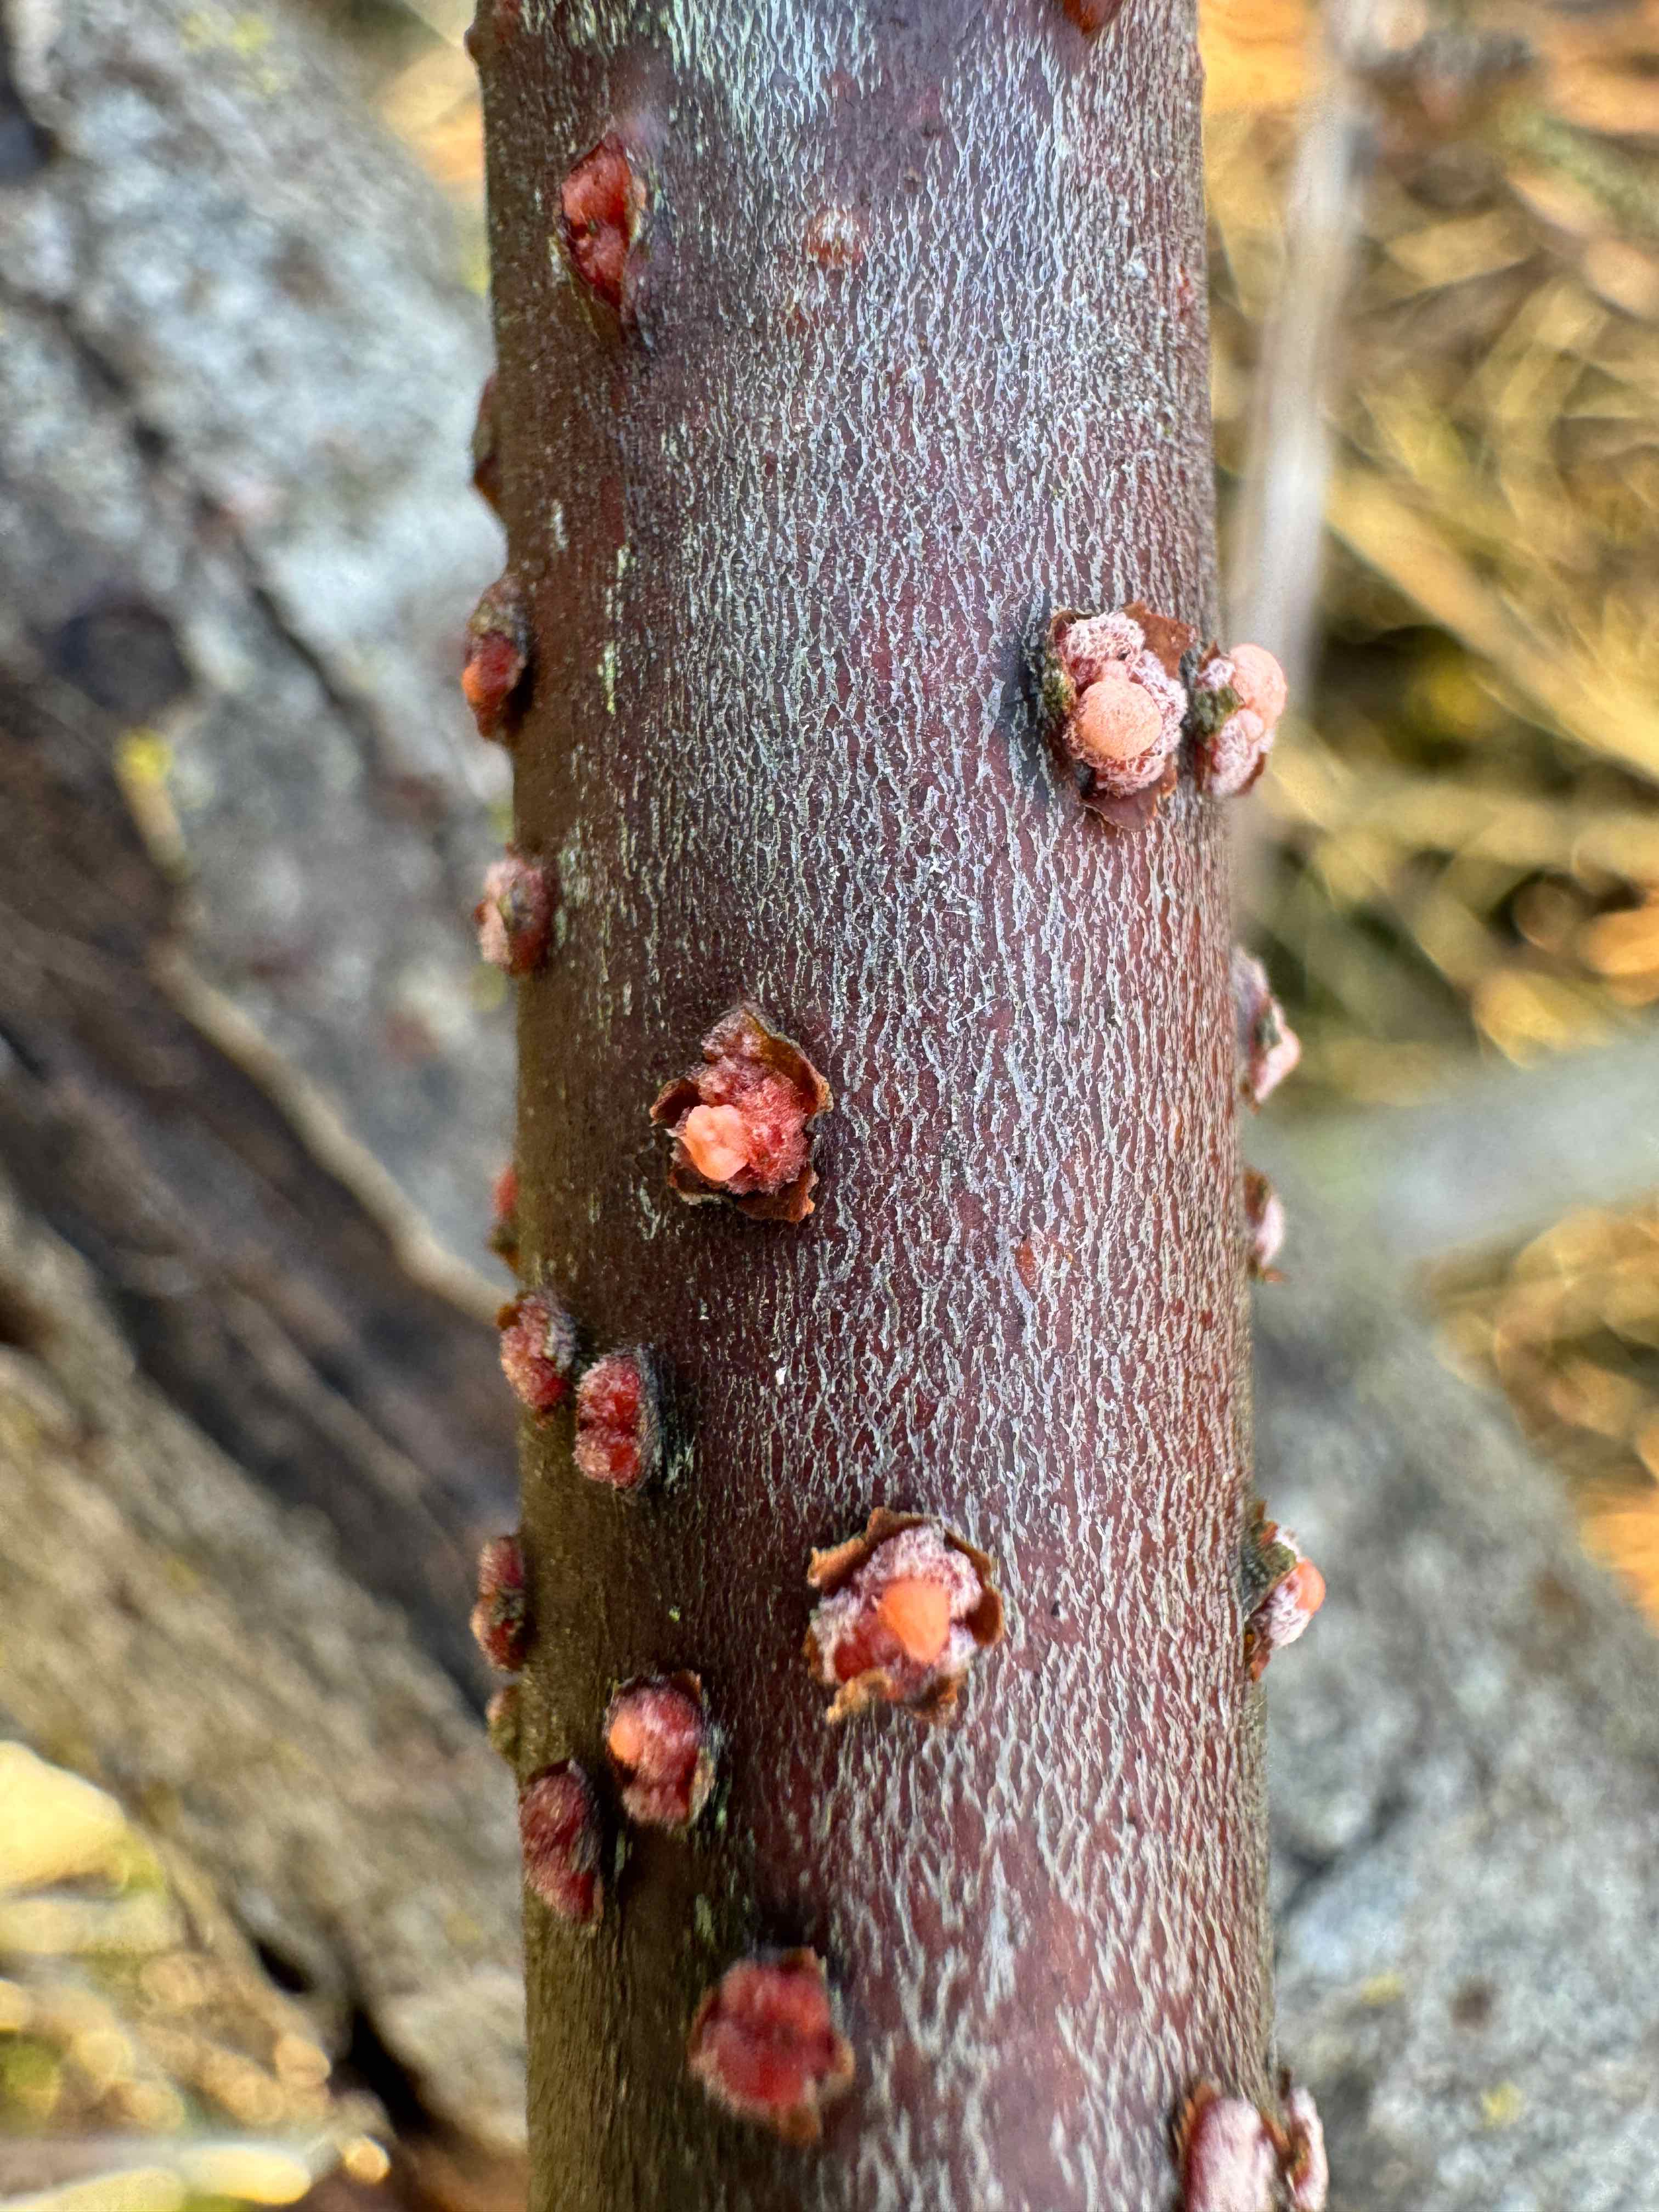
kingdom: Fungi
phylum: Ascomycota
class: Sordariomycetes
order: Hypocreales
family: Nectriaceae
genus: Nectria
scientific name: Nectria cinnabarina
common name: almindelig cinnobersvamp
